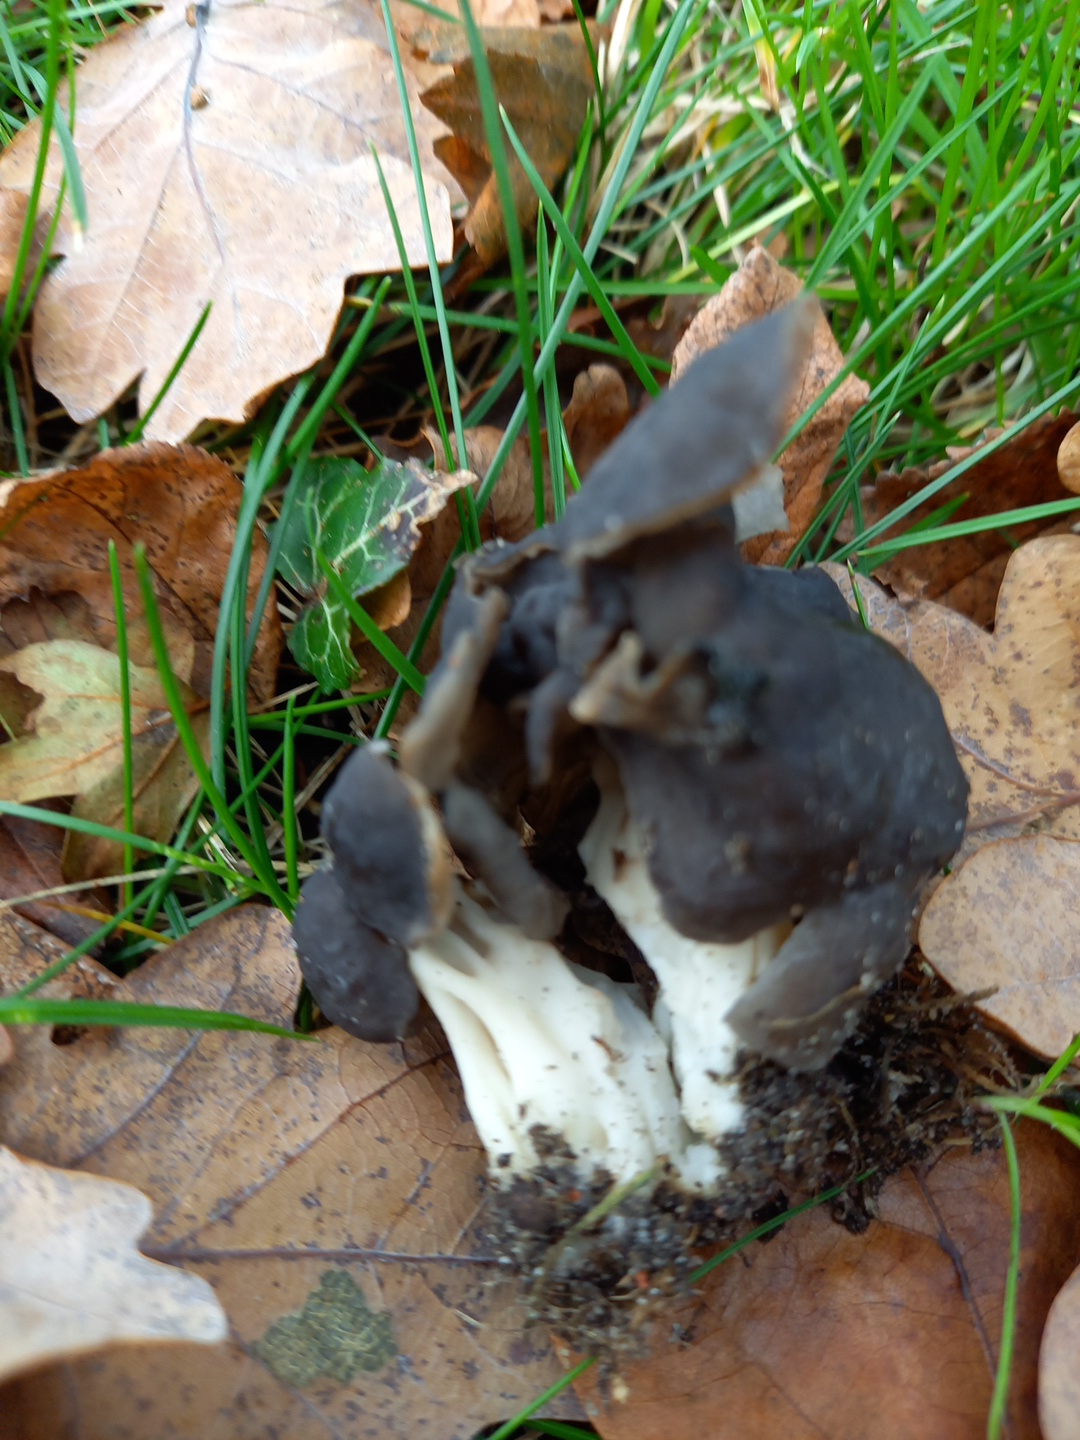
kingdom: Fungi
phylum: Ascomycota
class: Pezizomycetes
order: Pezizales
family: Helvellaceae
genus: Helvella
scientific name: Helvella lacunosa
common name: grubet foldhat
